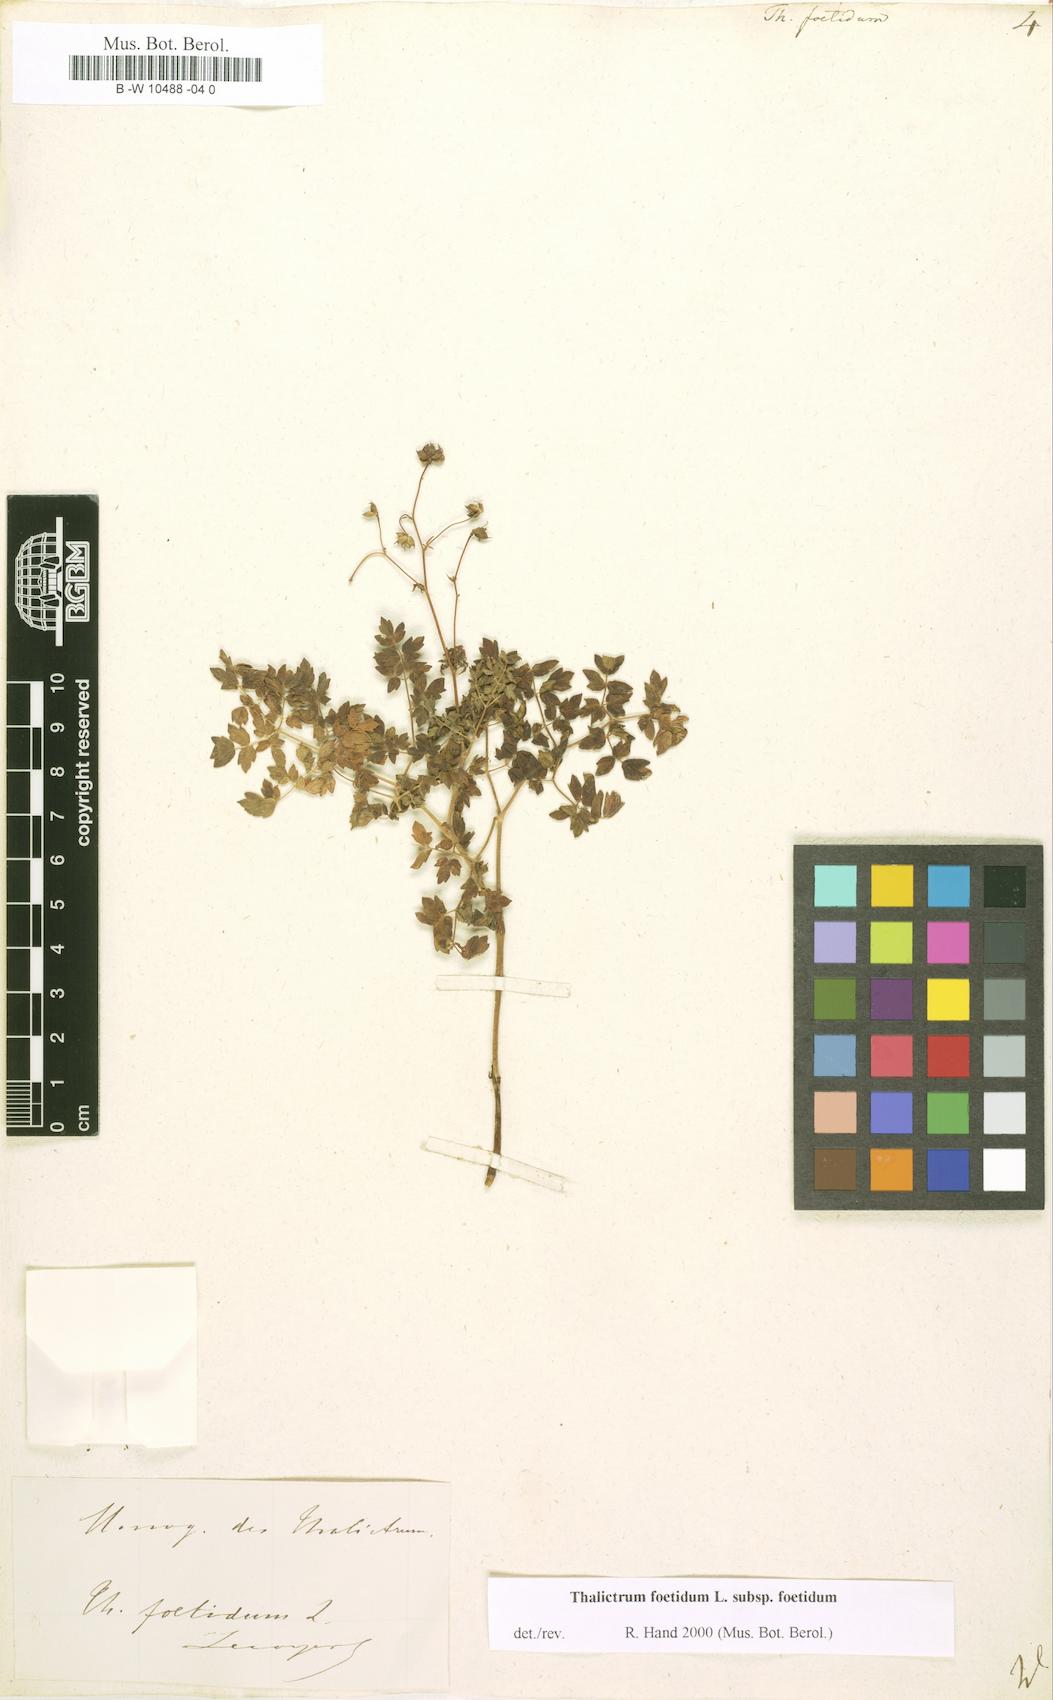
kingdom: Plantae
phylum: Tracheophyta
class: Magnoliopsida
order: Ranunculales
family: Ranunculaceae
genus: Thalictrum
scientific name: Thalictrum foetidum
